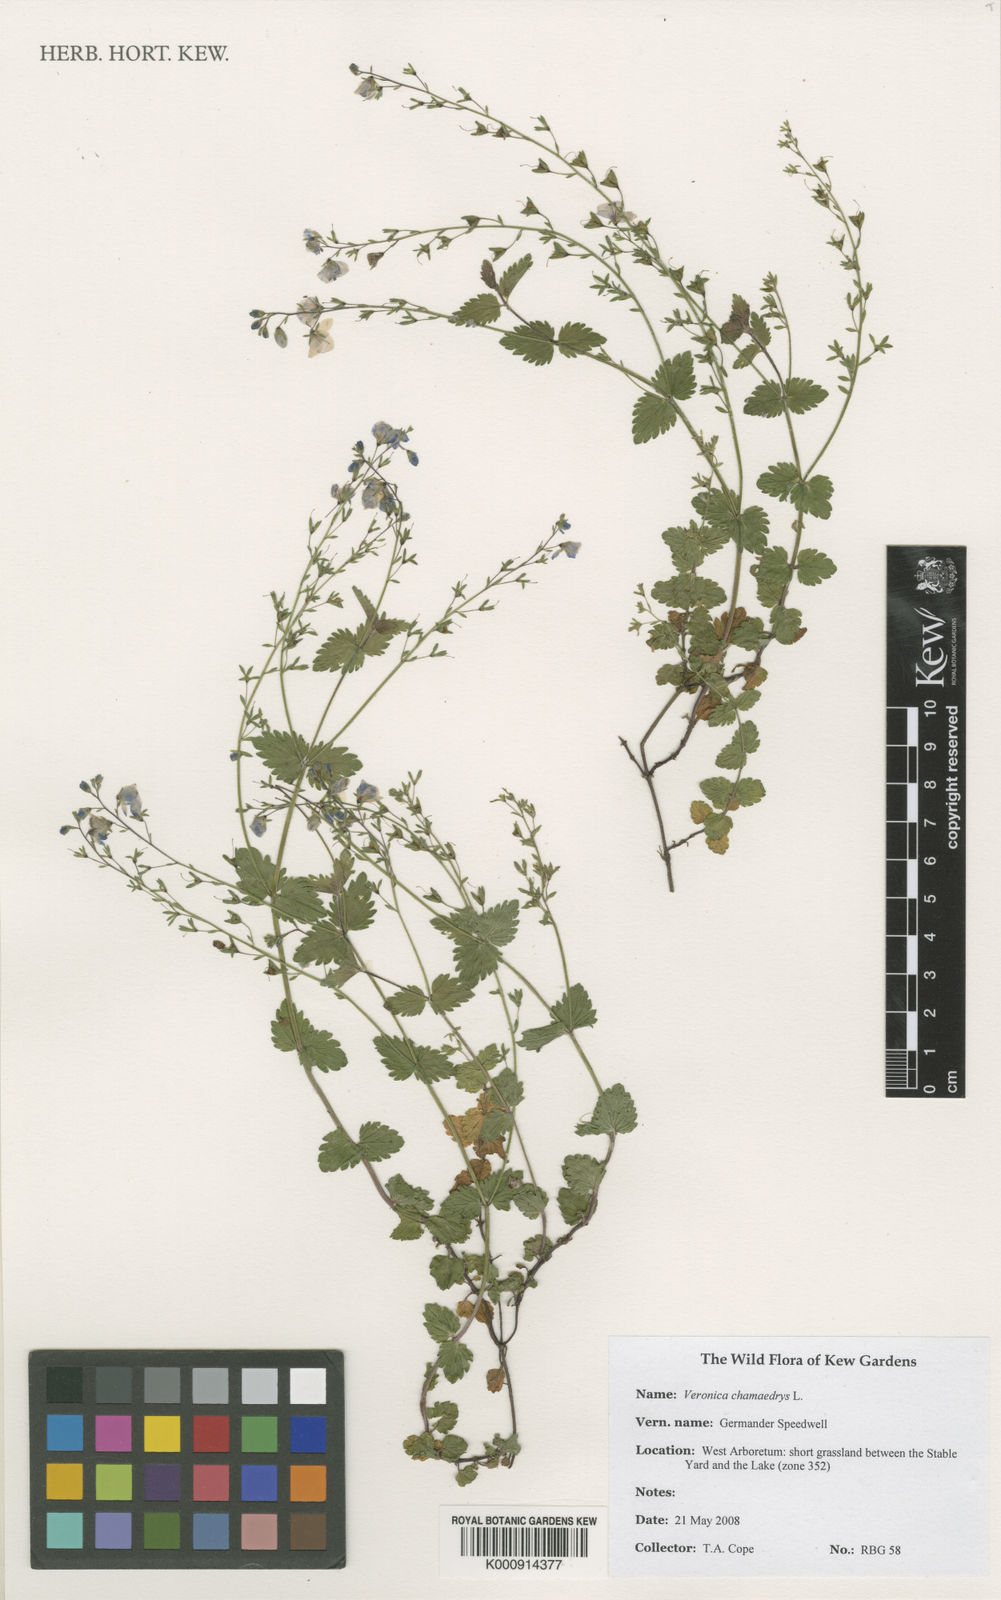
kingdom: Plantae
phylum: Tracheophyta
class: Magnoliopsida
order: Lamiales
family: Plantaginaceae
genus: Veronica
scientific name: Veronica chamaedrys
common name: Germander speedwell
